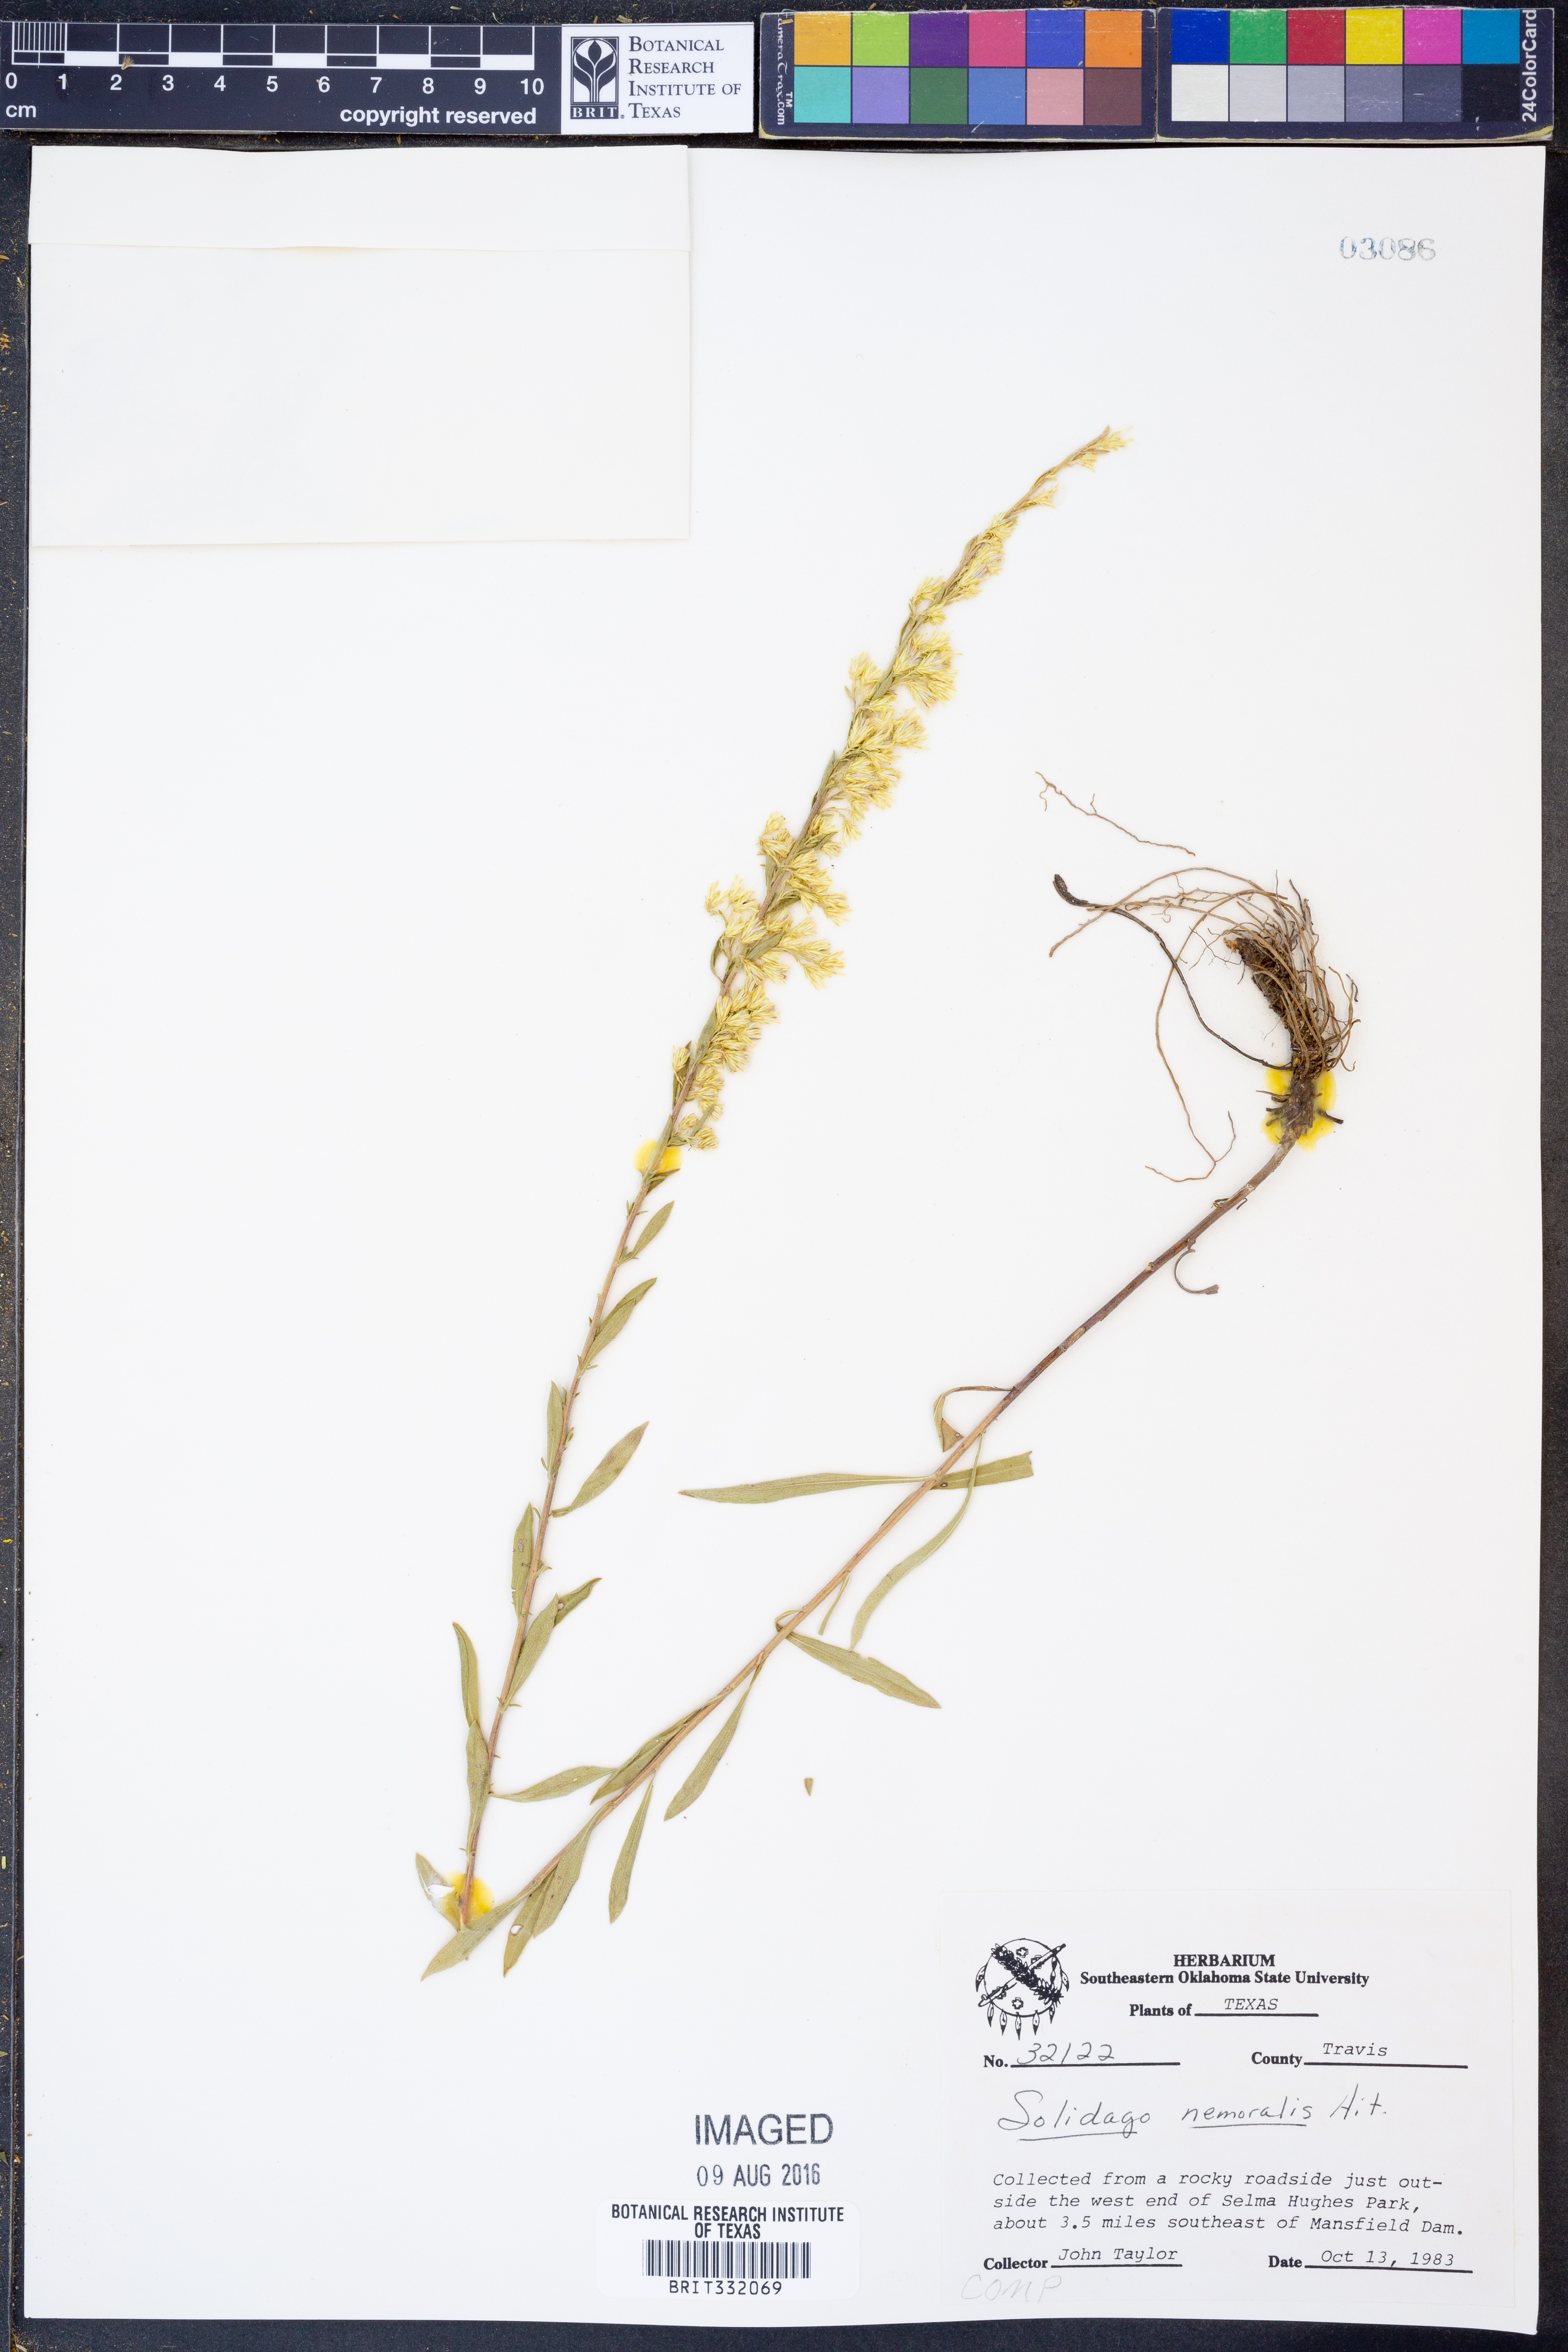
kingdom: Plantae
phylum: Tracheophyta
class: Magnoliopsida
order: Asterales
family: Asteraceae
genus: Solidago
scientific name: Solidago nemoralis
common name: Grey goldenrod
